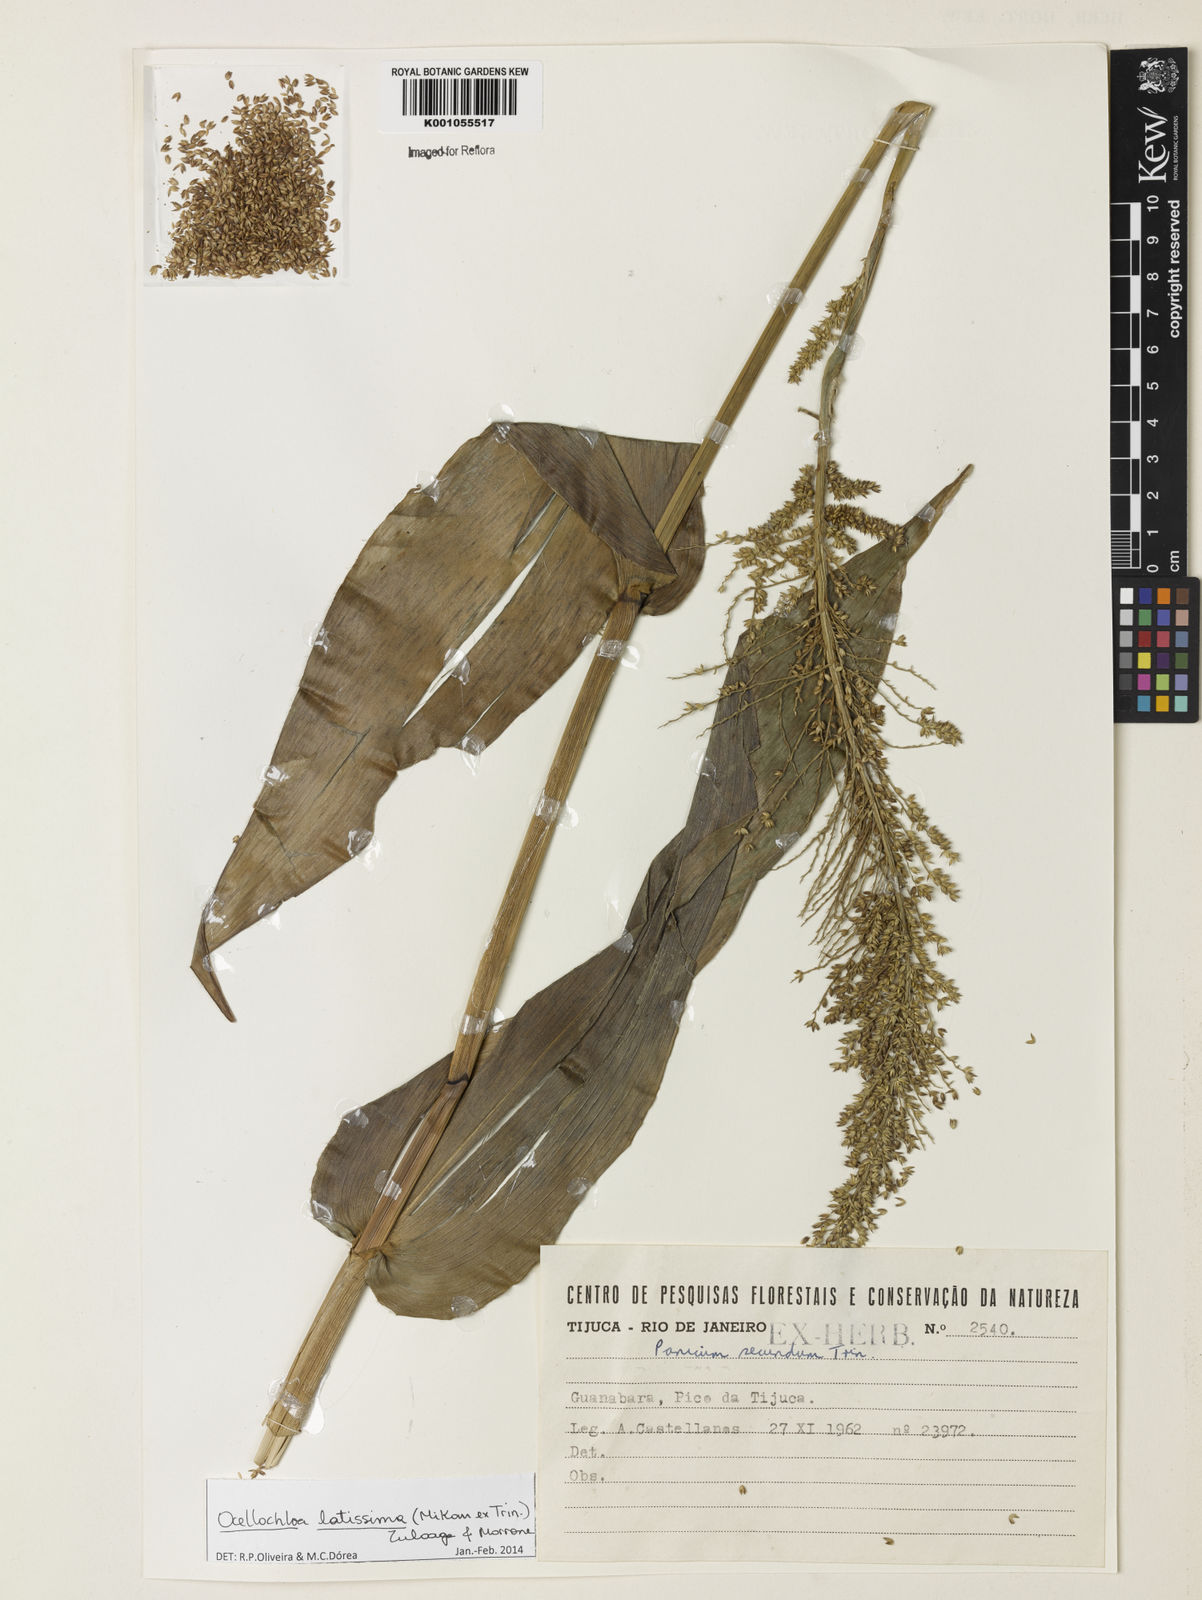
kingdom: Plantae
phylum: Tracheophyta
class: Liliopsida
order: Poales
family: Poaceae
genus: Ocellochloa
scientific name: Ocellochloa latissima
